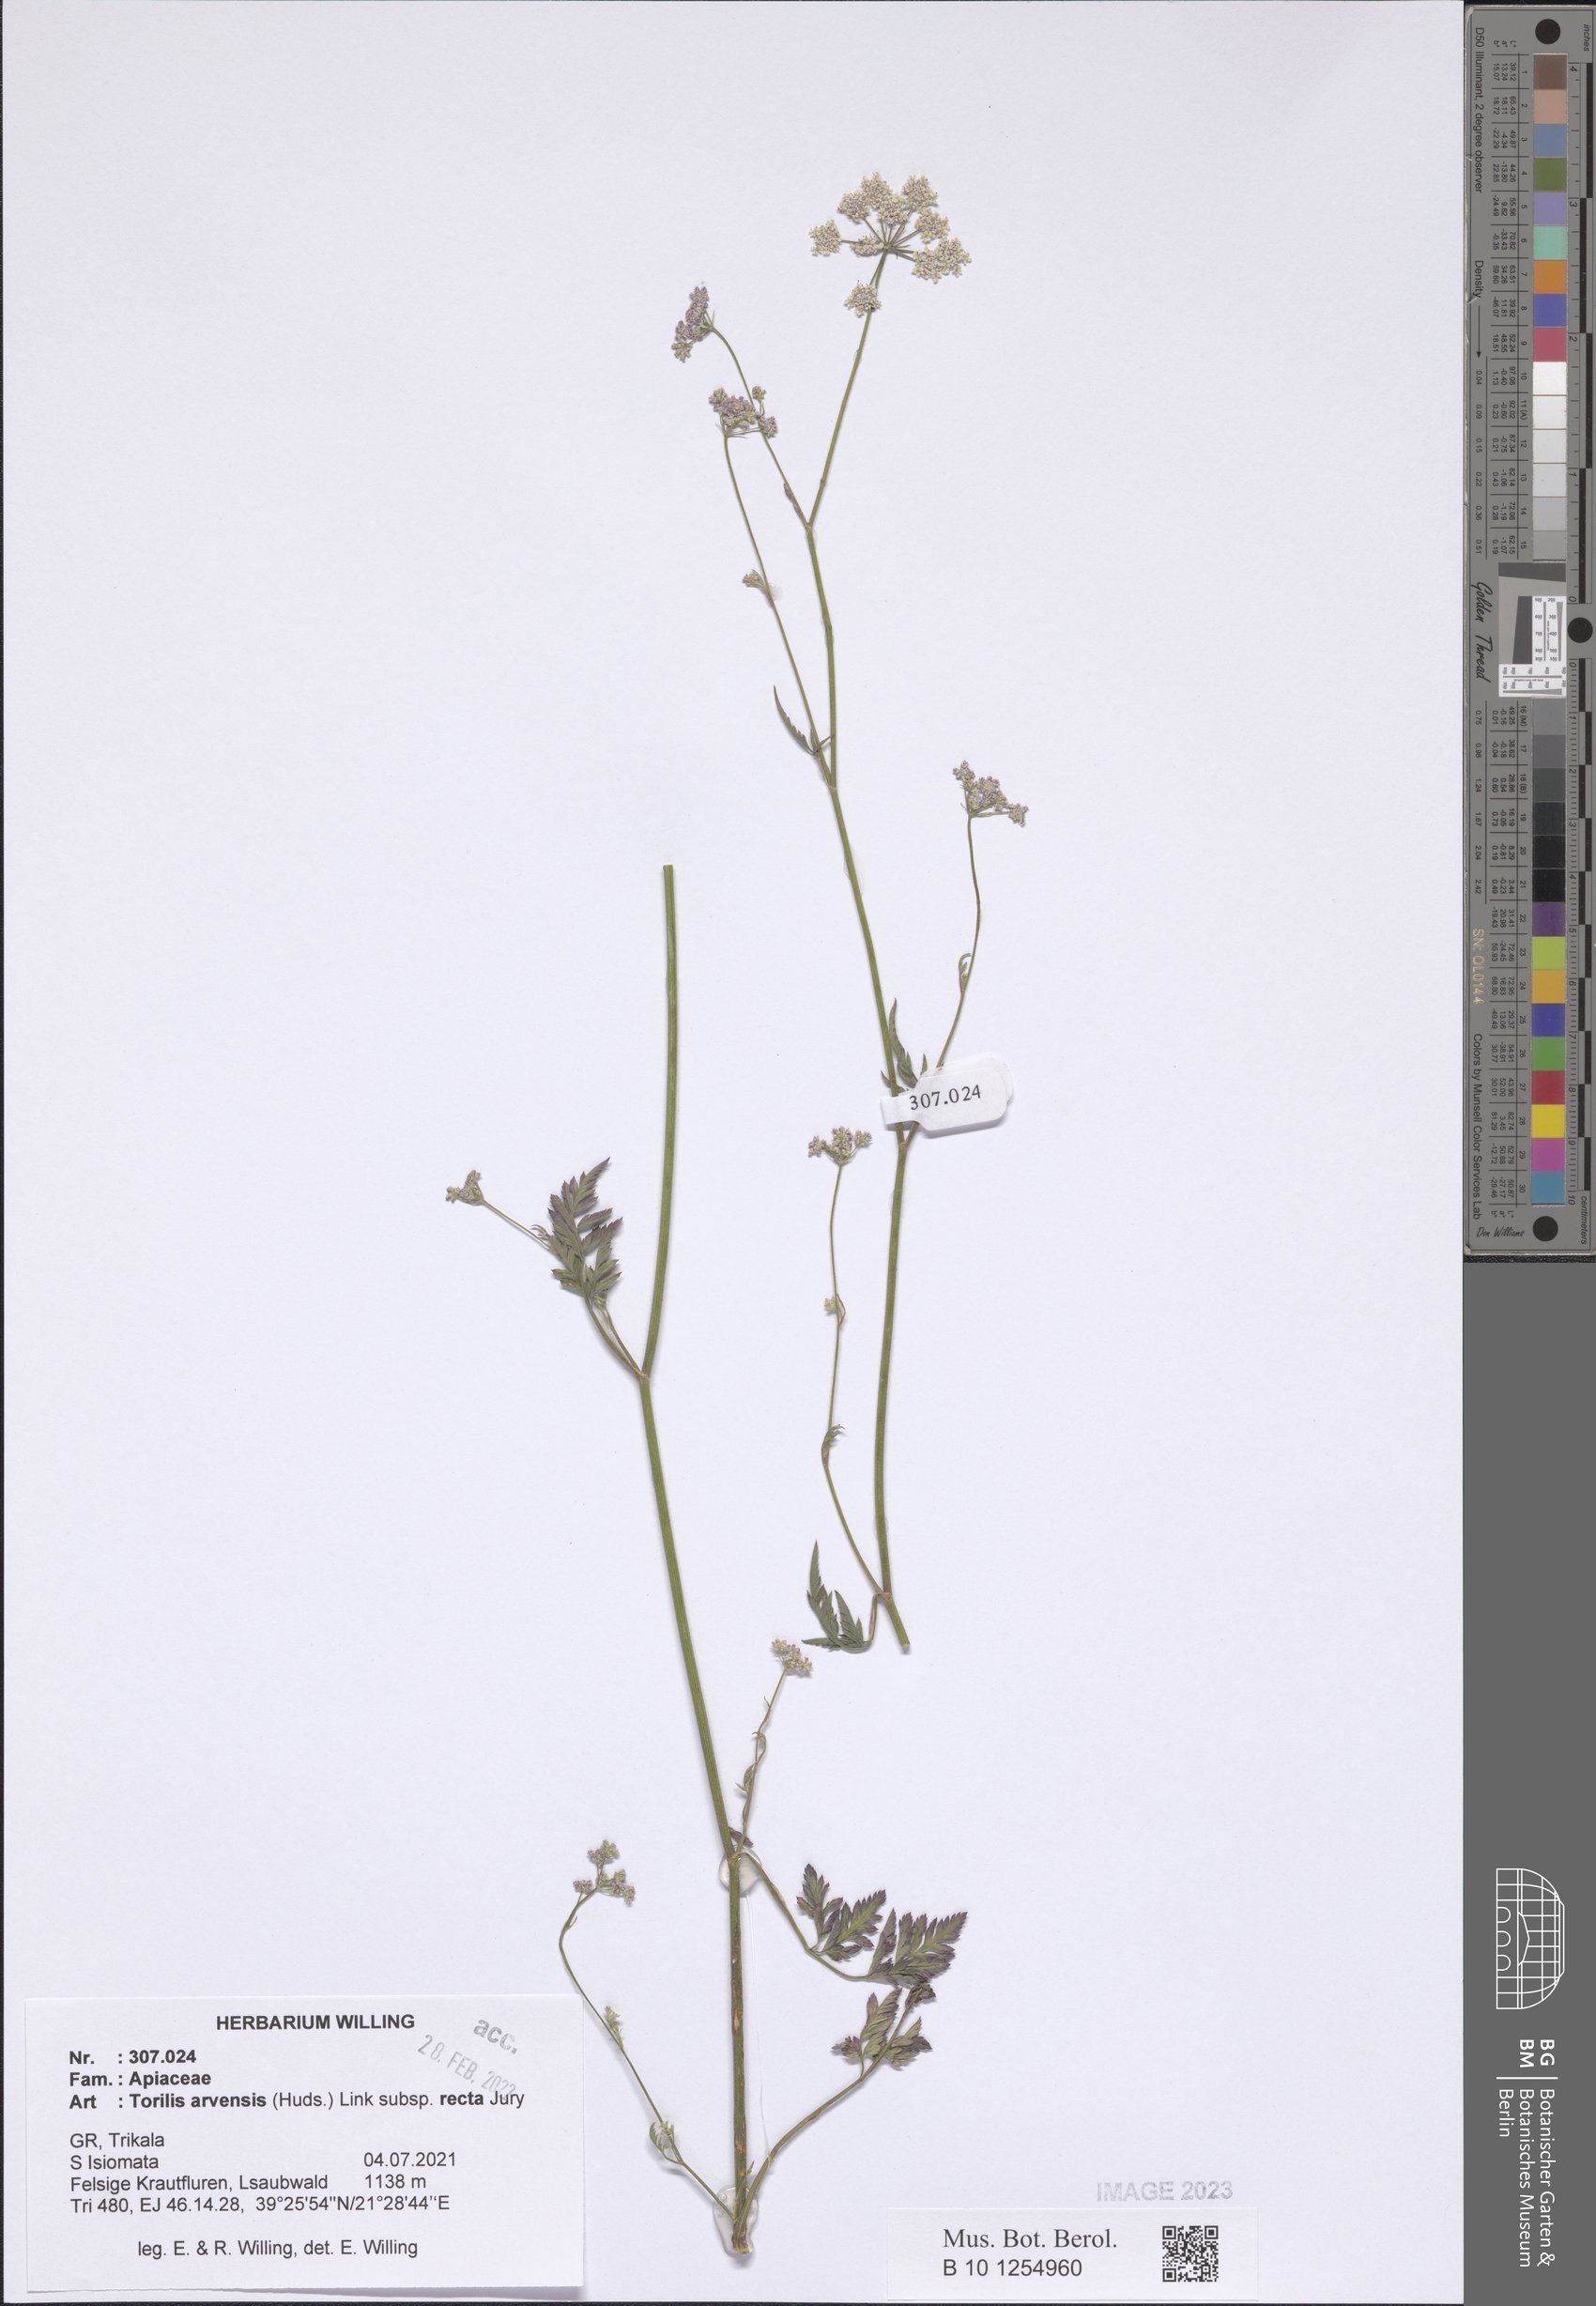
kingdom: Plantae
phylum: Tracheophyta
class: Magnoliopsida
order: Apiales
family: Apiaceae
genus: Torilis
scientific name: Torilis arvensis
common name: Spreading hedge-parsley
